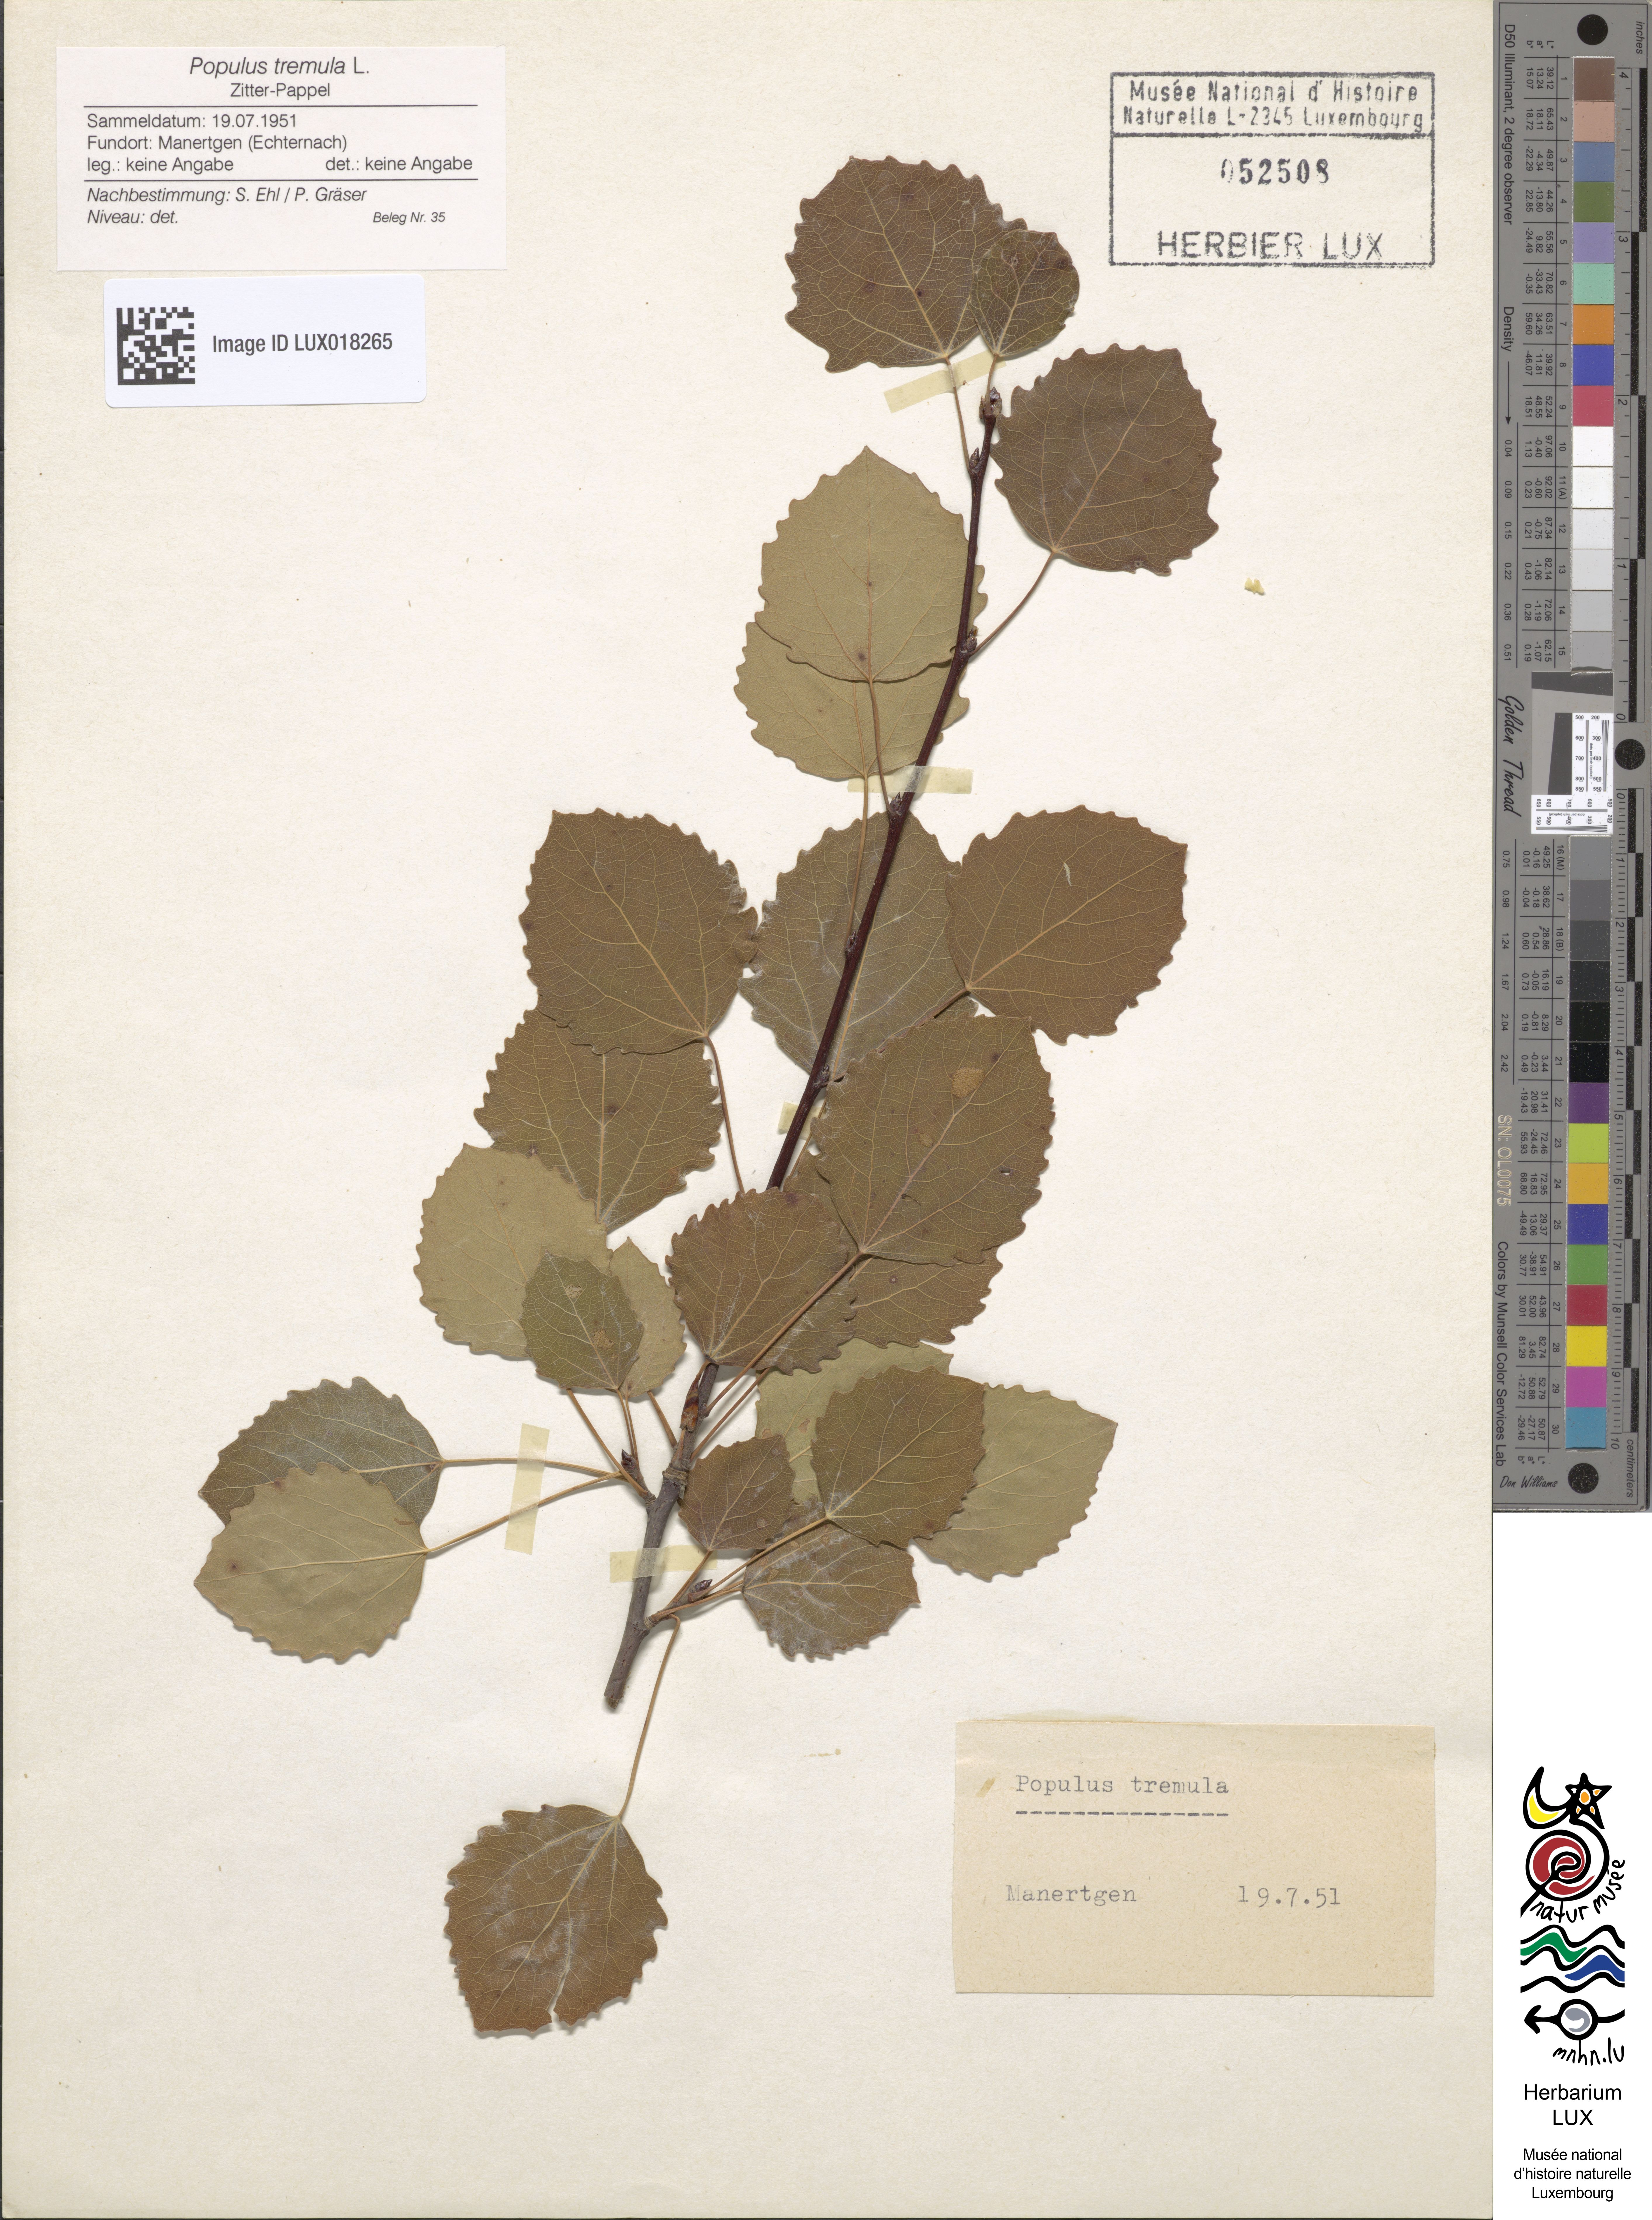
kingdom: Plantae
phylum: Tracheophyta
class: Magnoliopsida
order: Malpighiales
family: Salicaceae
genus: Populus
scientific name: Populus tremula
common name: European aspen
